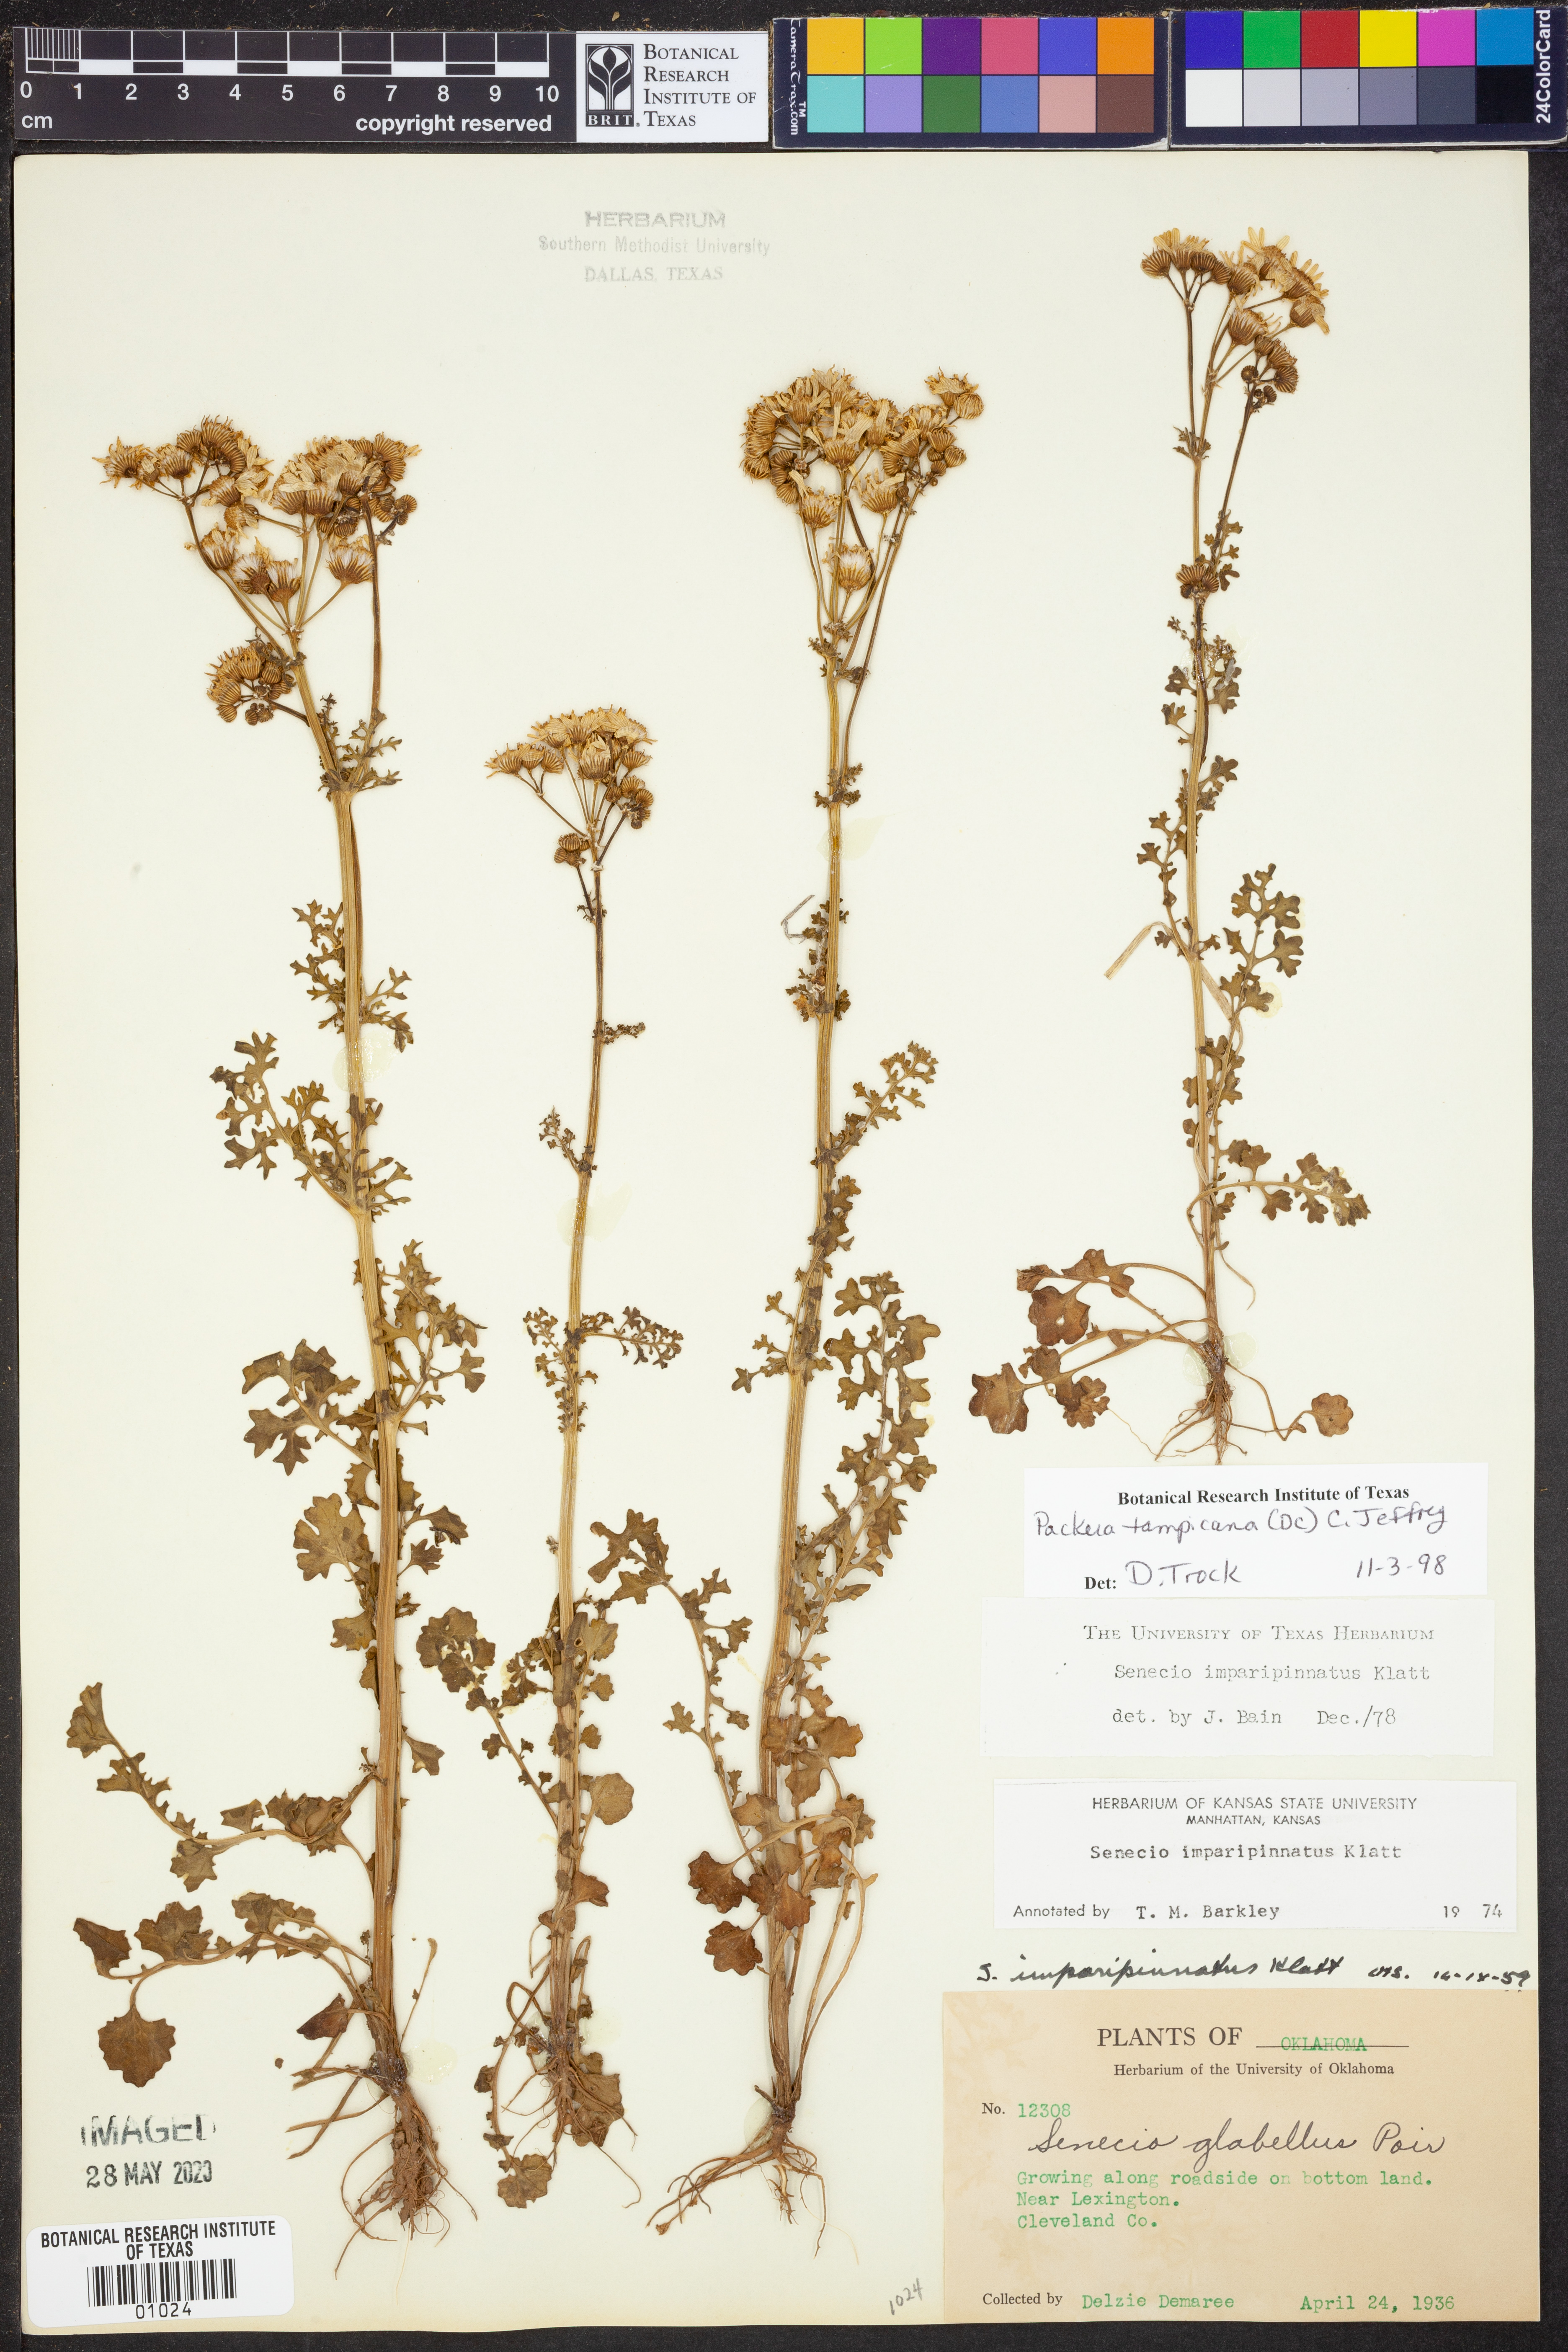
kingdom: Plantae
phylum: Tracheophyta
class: Magnoliopsida
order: Asterales
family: Asteraceae
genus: Packera
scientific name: Packera tampicana
